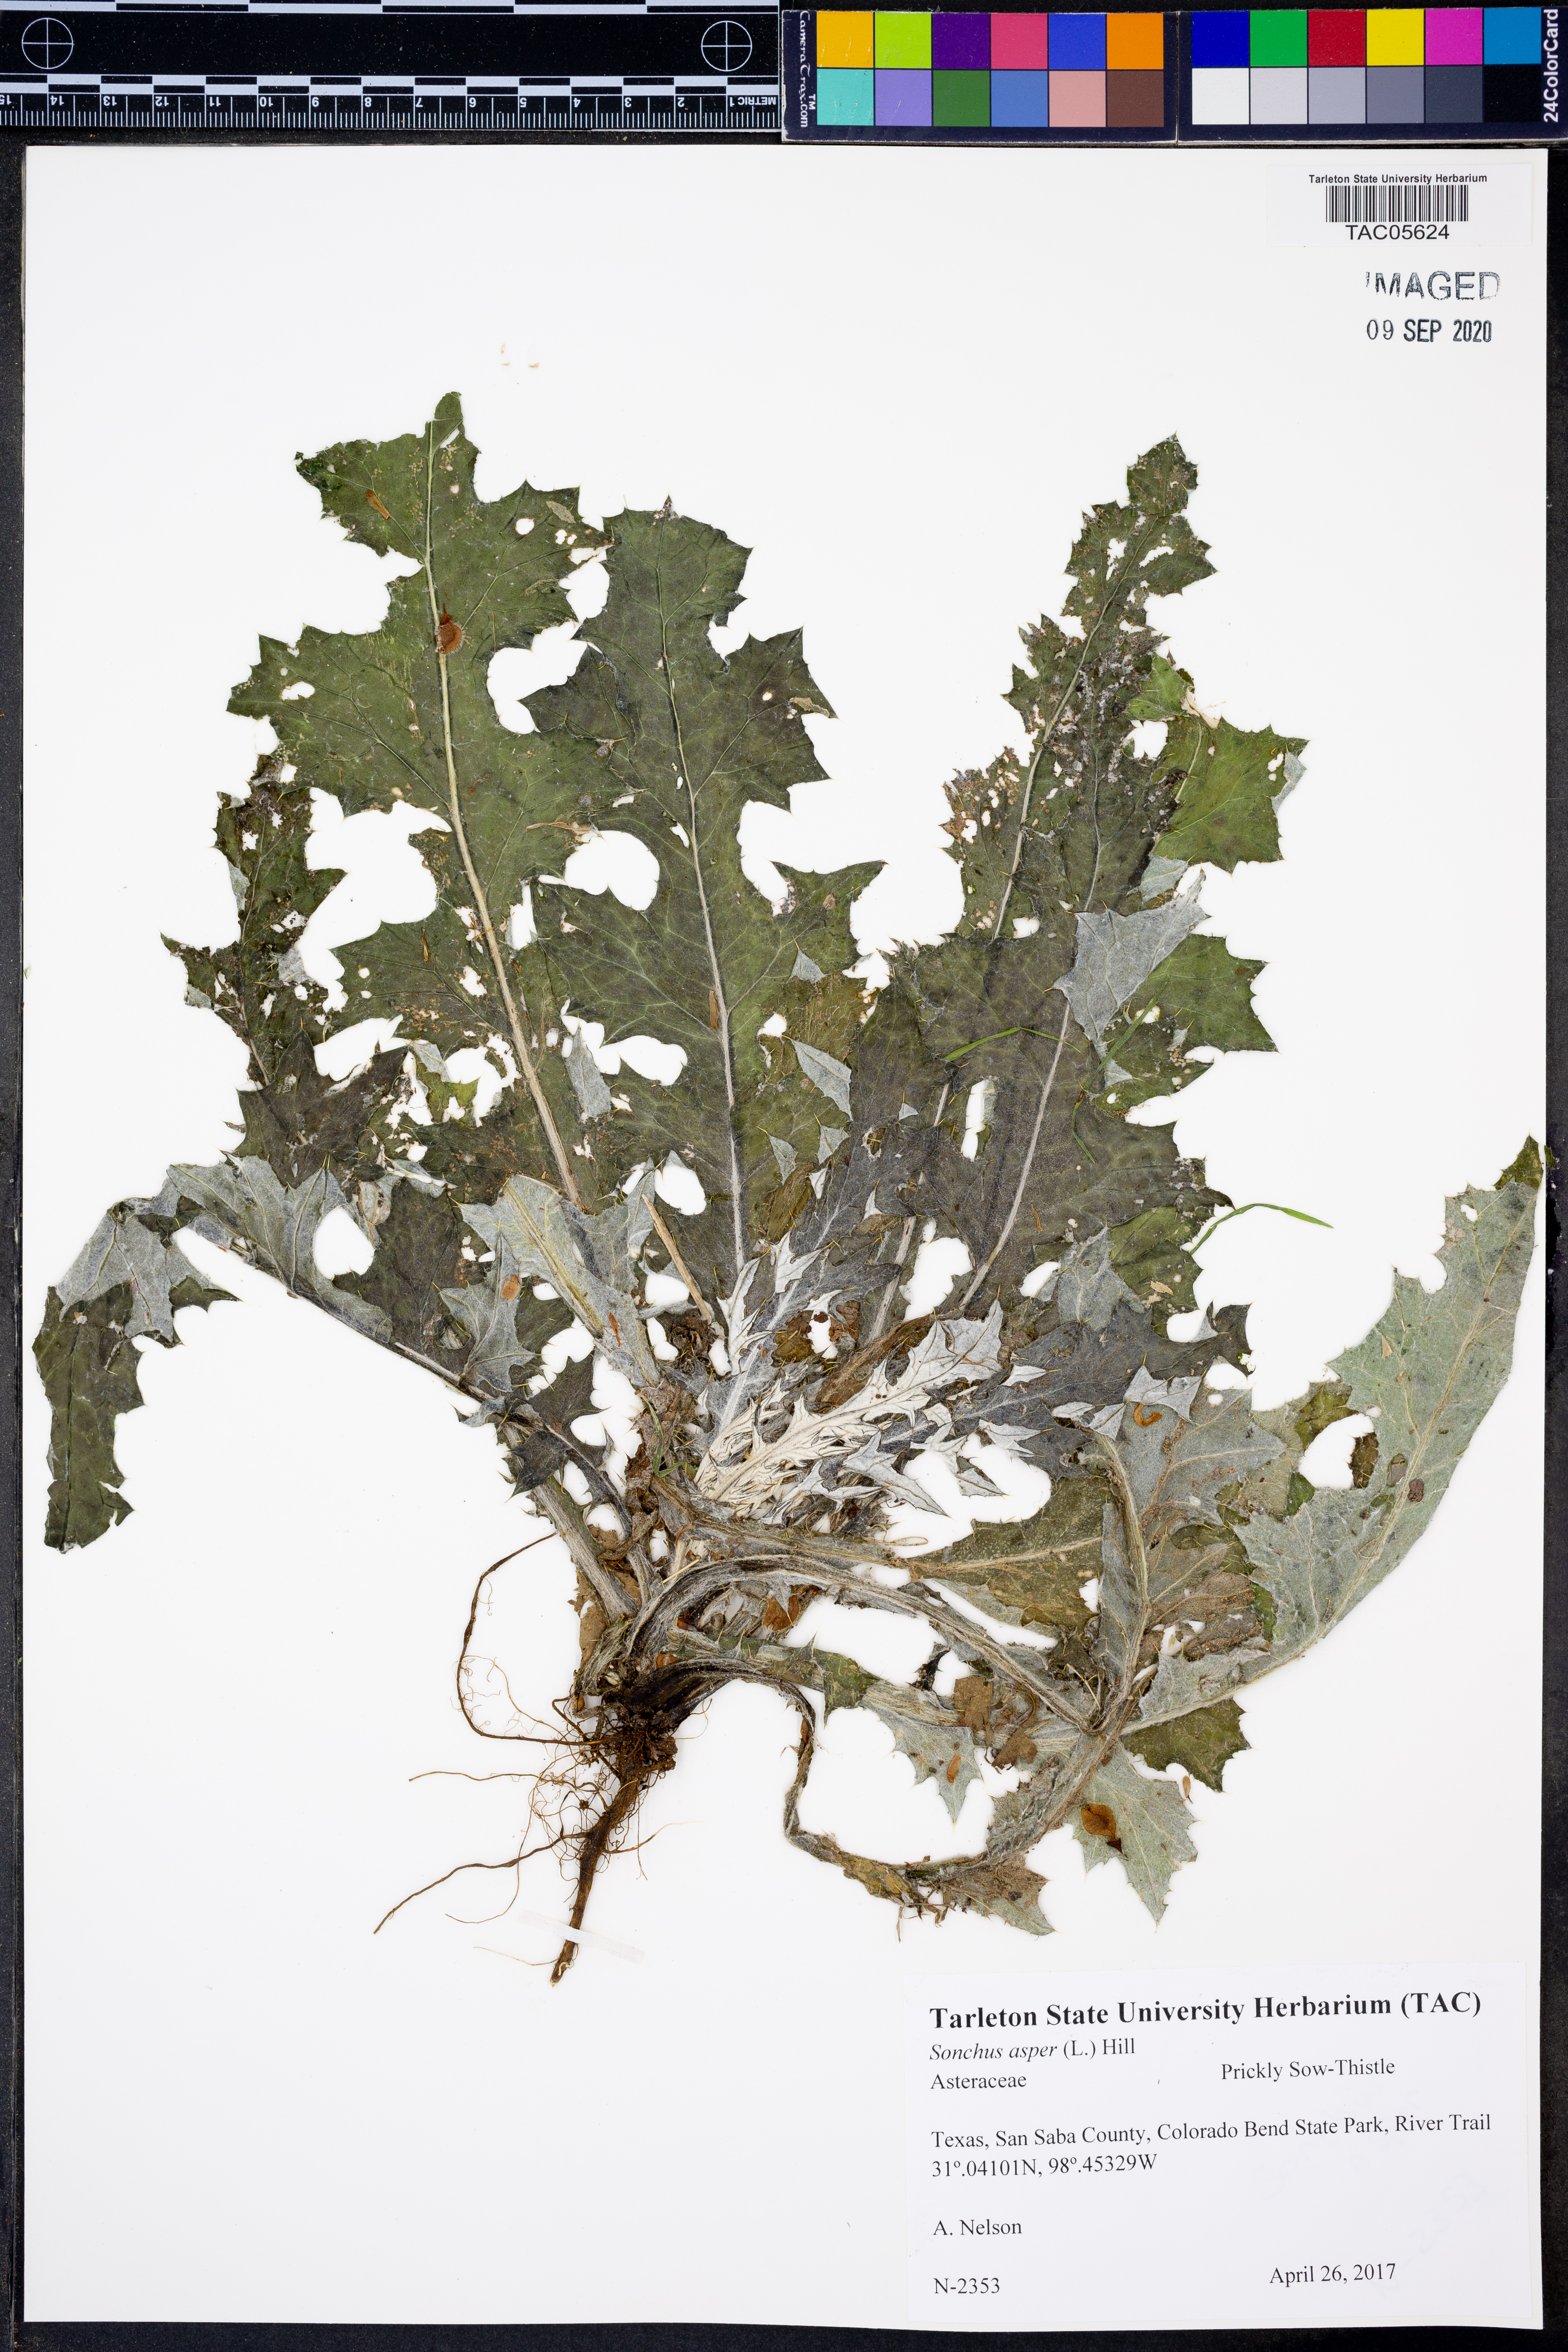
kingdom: Plantae
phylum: Tracheophyta
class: Magnoliopsida
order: Asterales
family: Asteraceae
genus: Sonchus
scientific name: Sonchus asper
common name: Prickly sow-thistle
